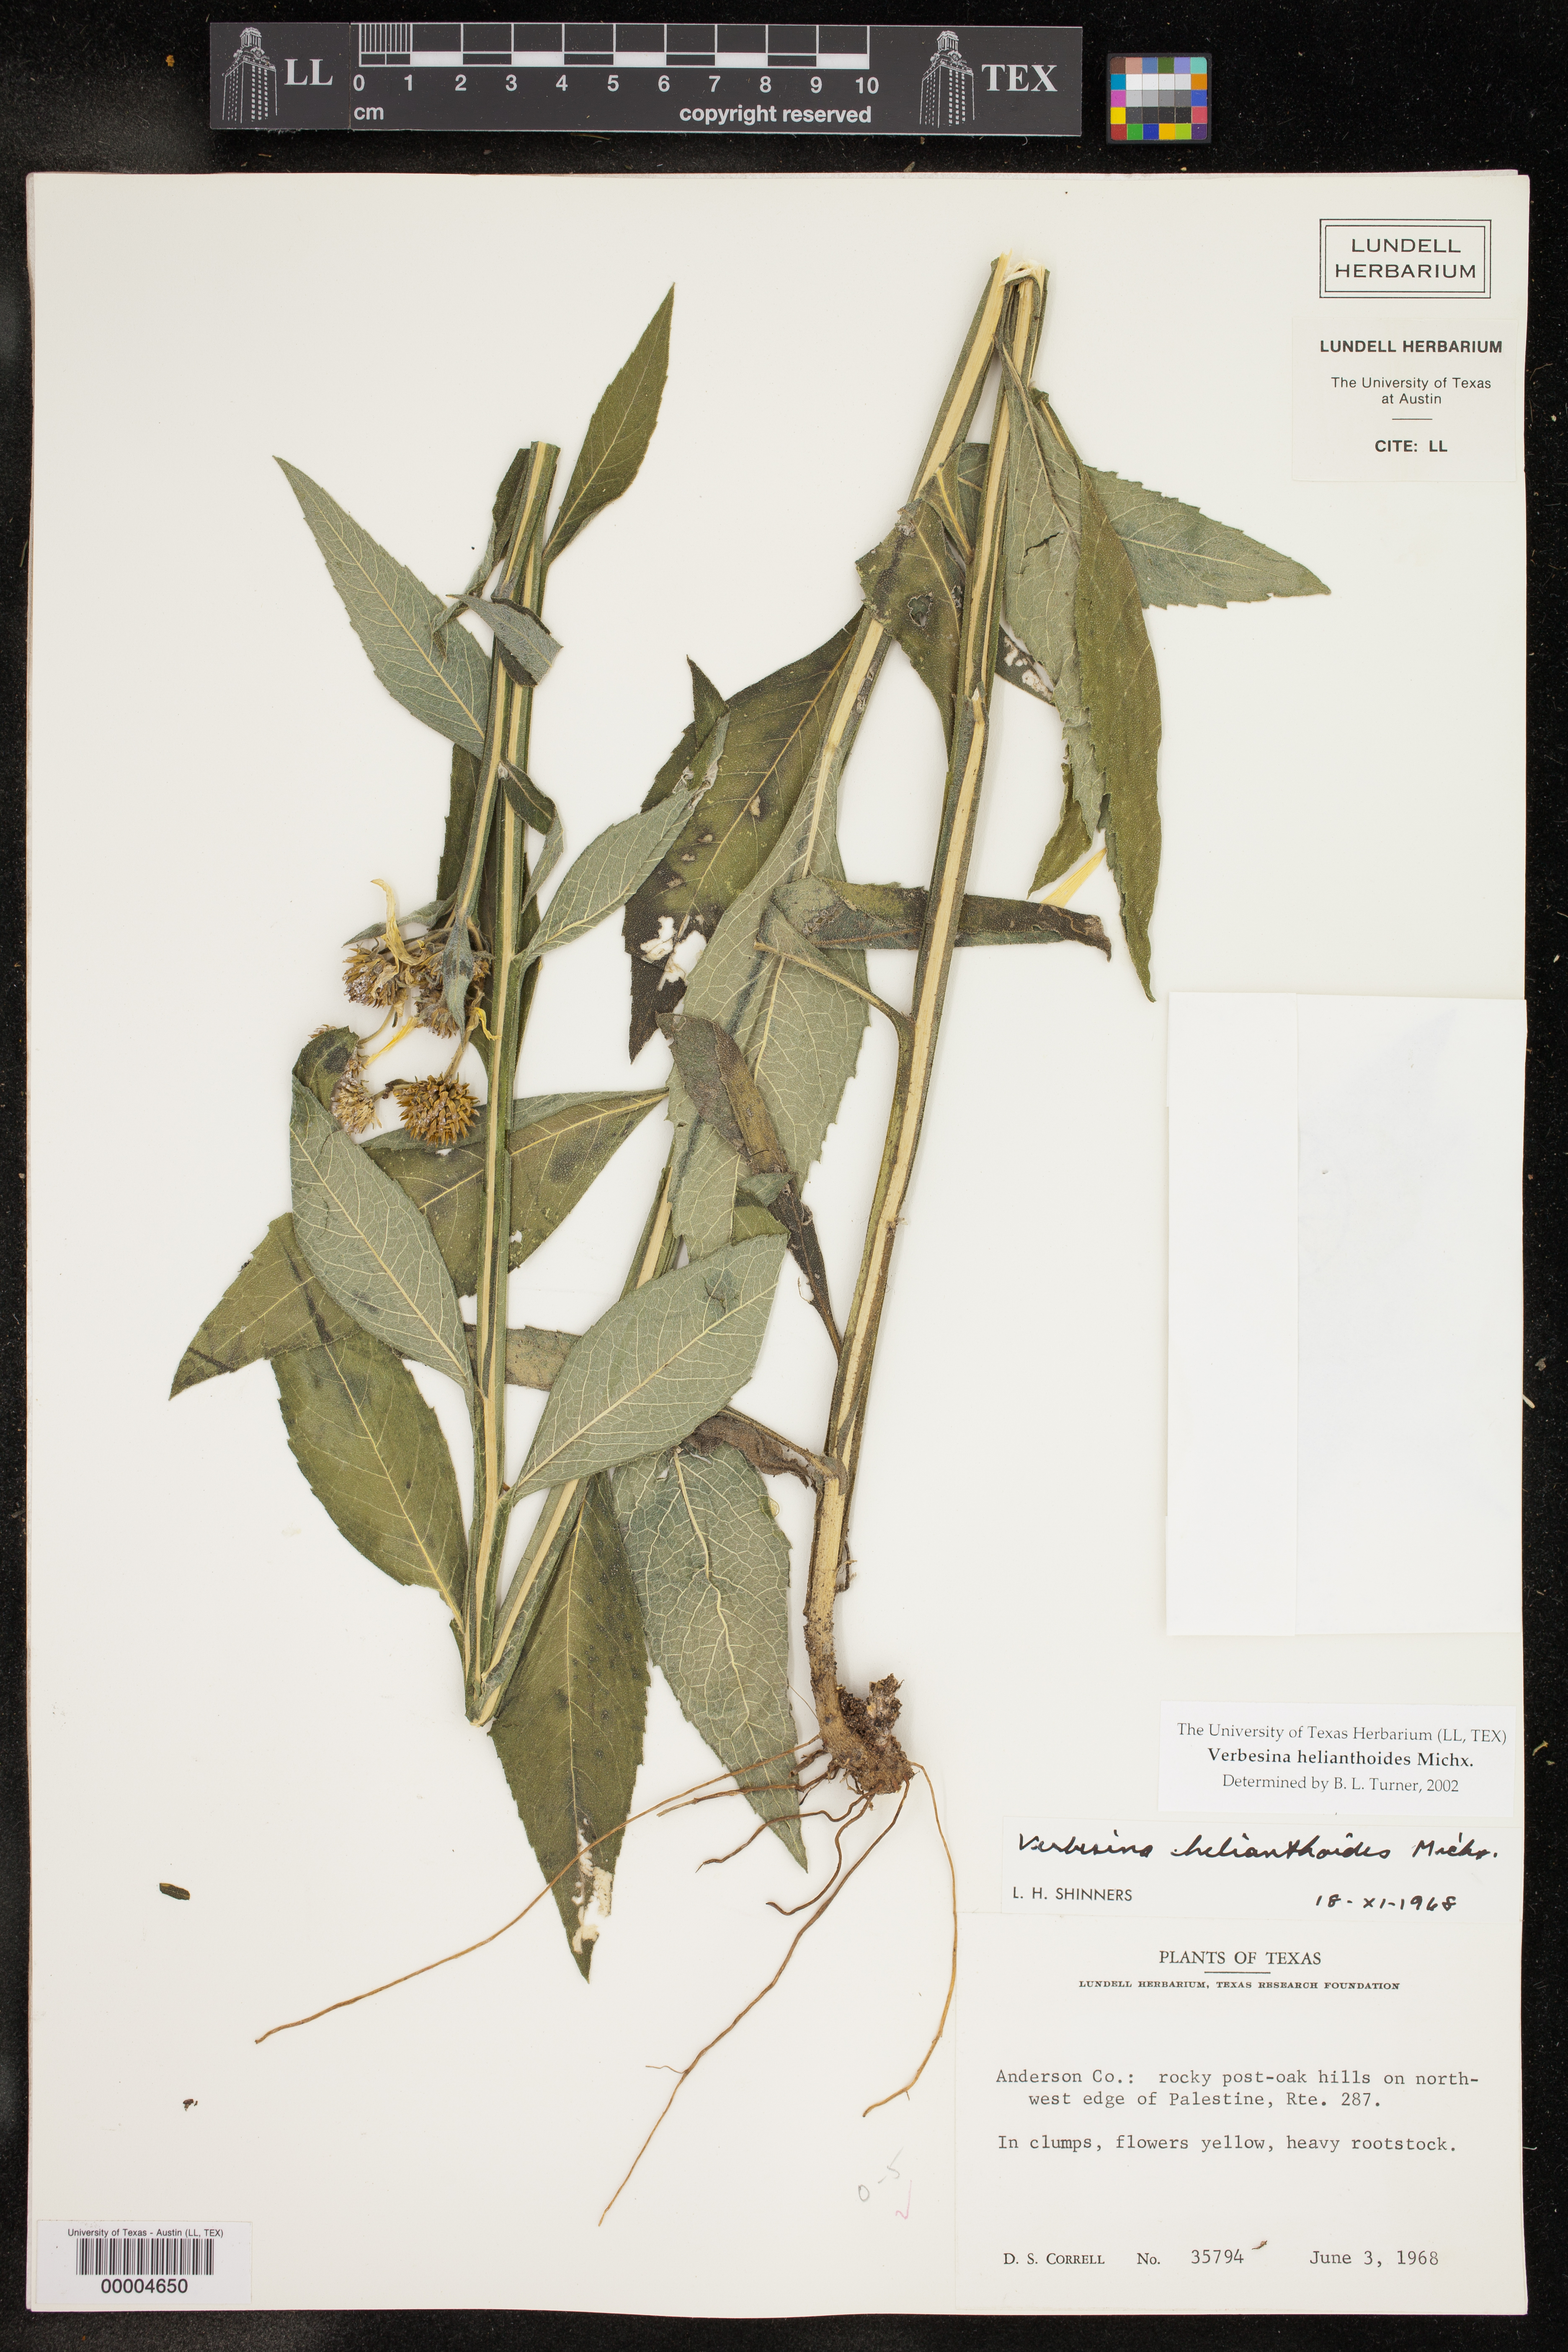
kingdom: Plantae
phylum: Tracheophyta
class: Magnoliopsida
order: Asterales
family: Asteraceae
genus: Verbesina
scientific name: Verbesina helianthoides
